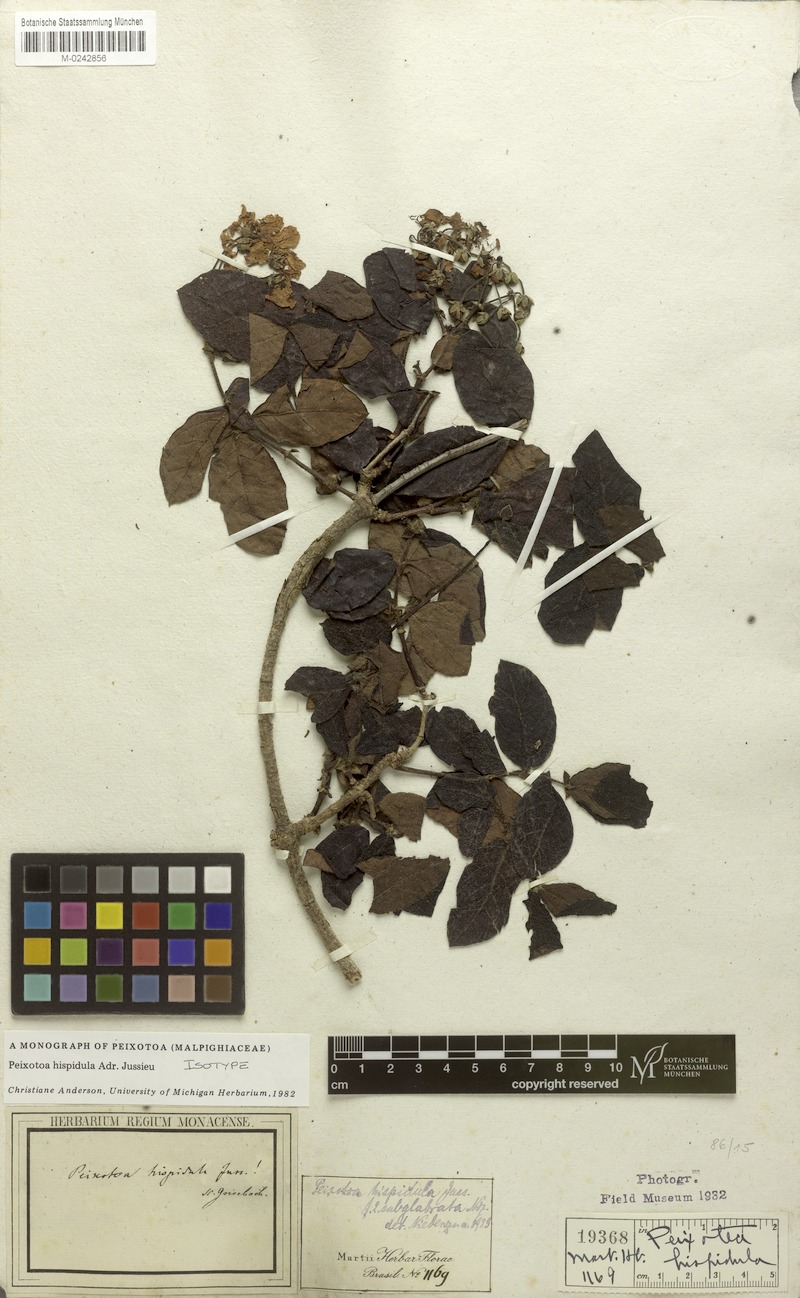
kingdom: Plantae
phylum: Tracheophyta
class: Magnoliopsida
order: Malpighiales
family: Malpighiaceae
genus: Peixotoa
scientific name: Peixotoa hispidula
